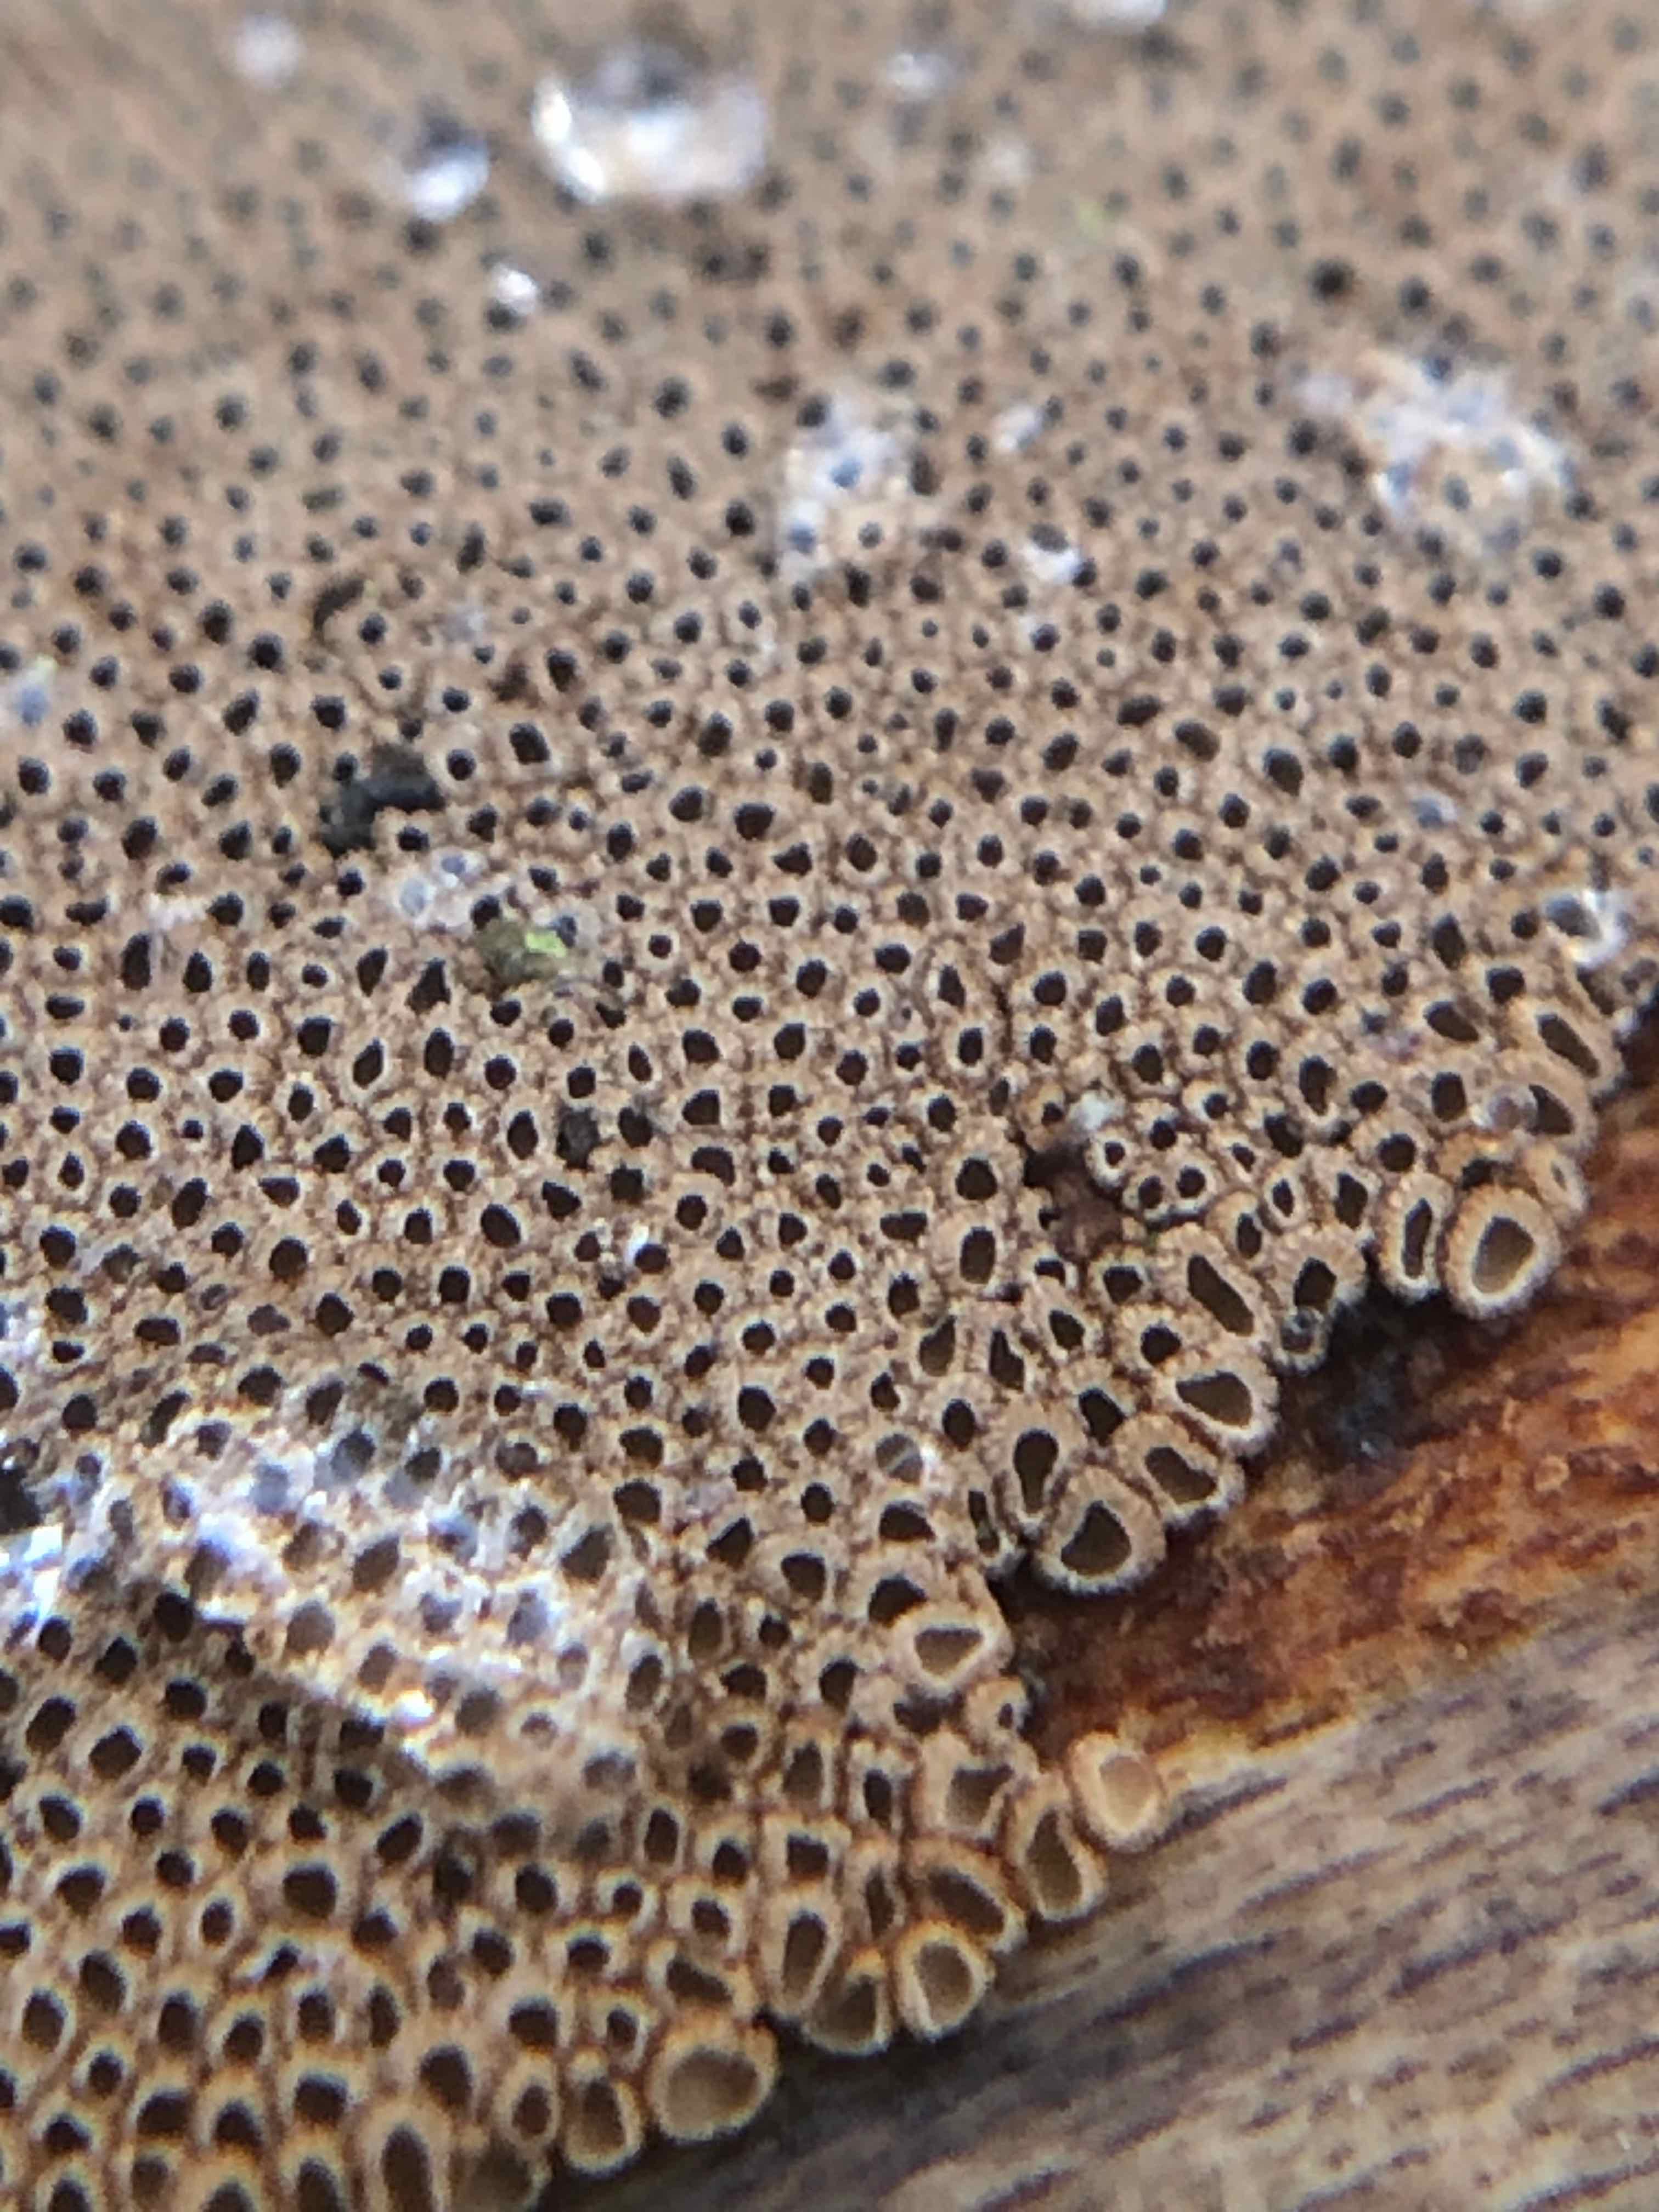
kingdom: Fungi
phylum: Basidiomycota
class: Agaricomycetes
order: Agaricales
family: Niaceae
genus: Merismodes
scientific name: Merismodes anomala
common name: almindelig læderskål
